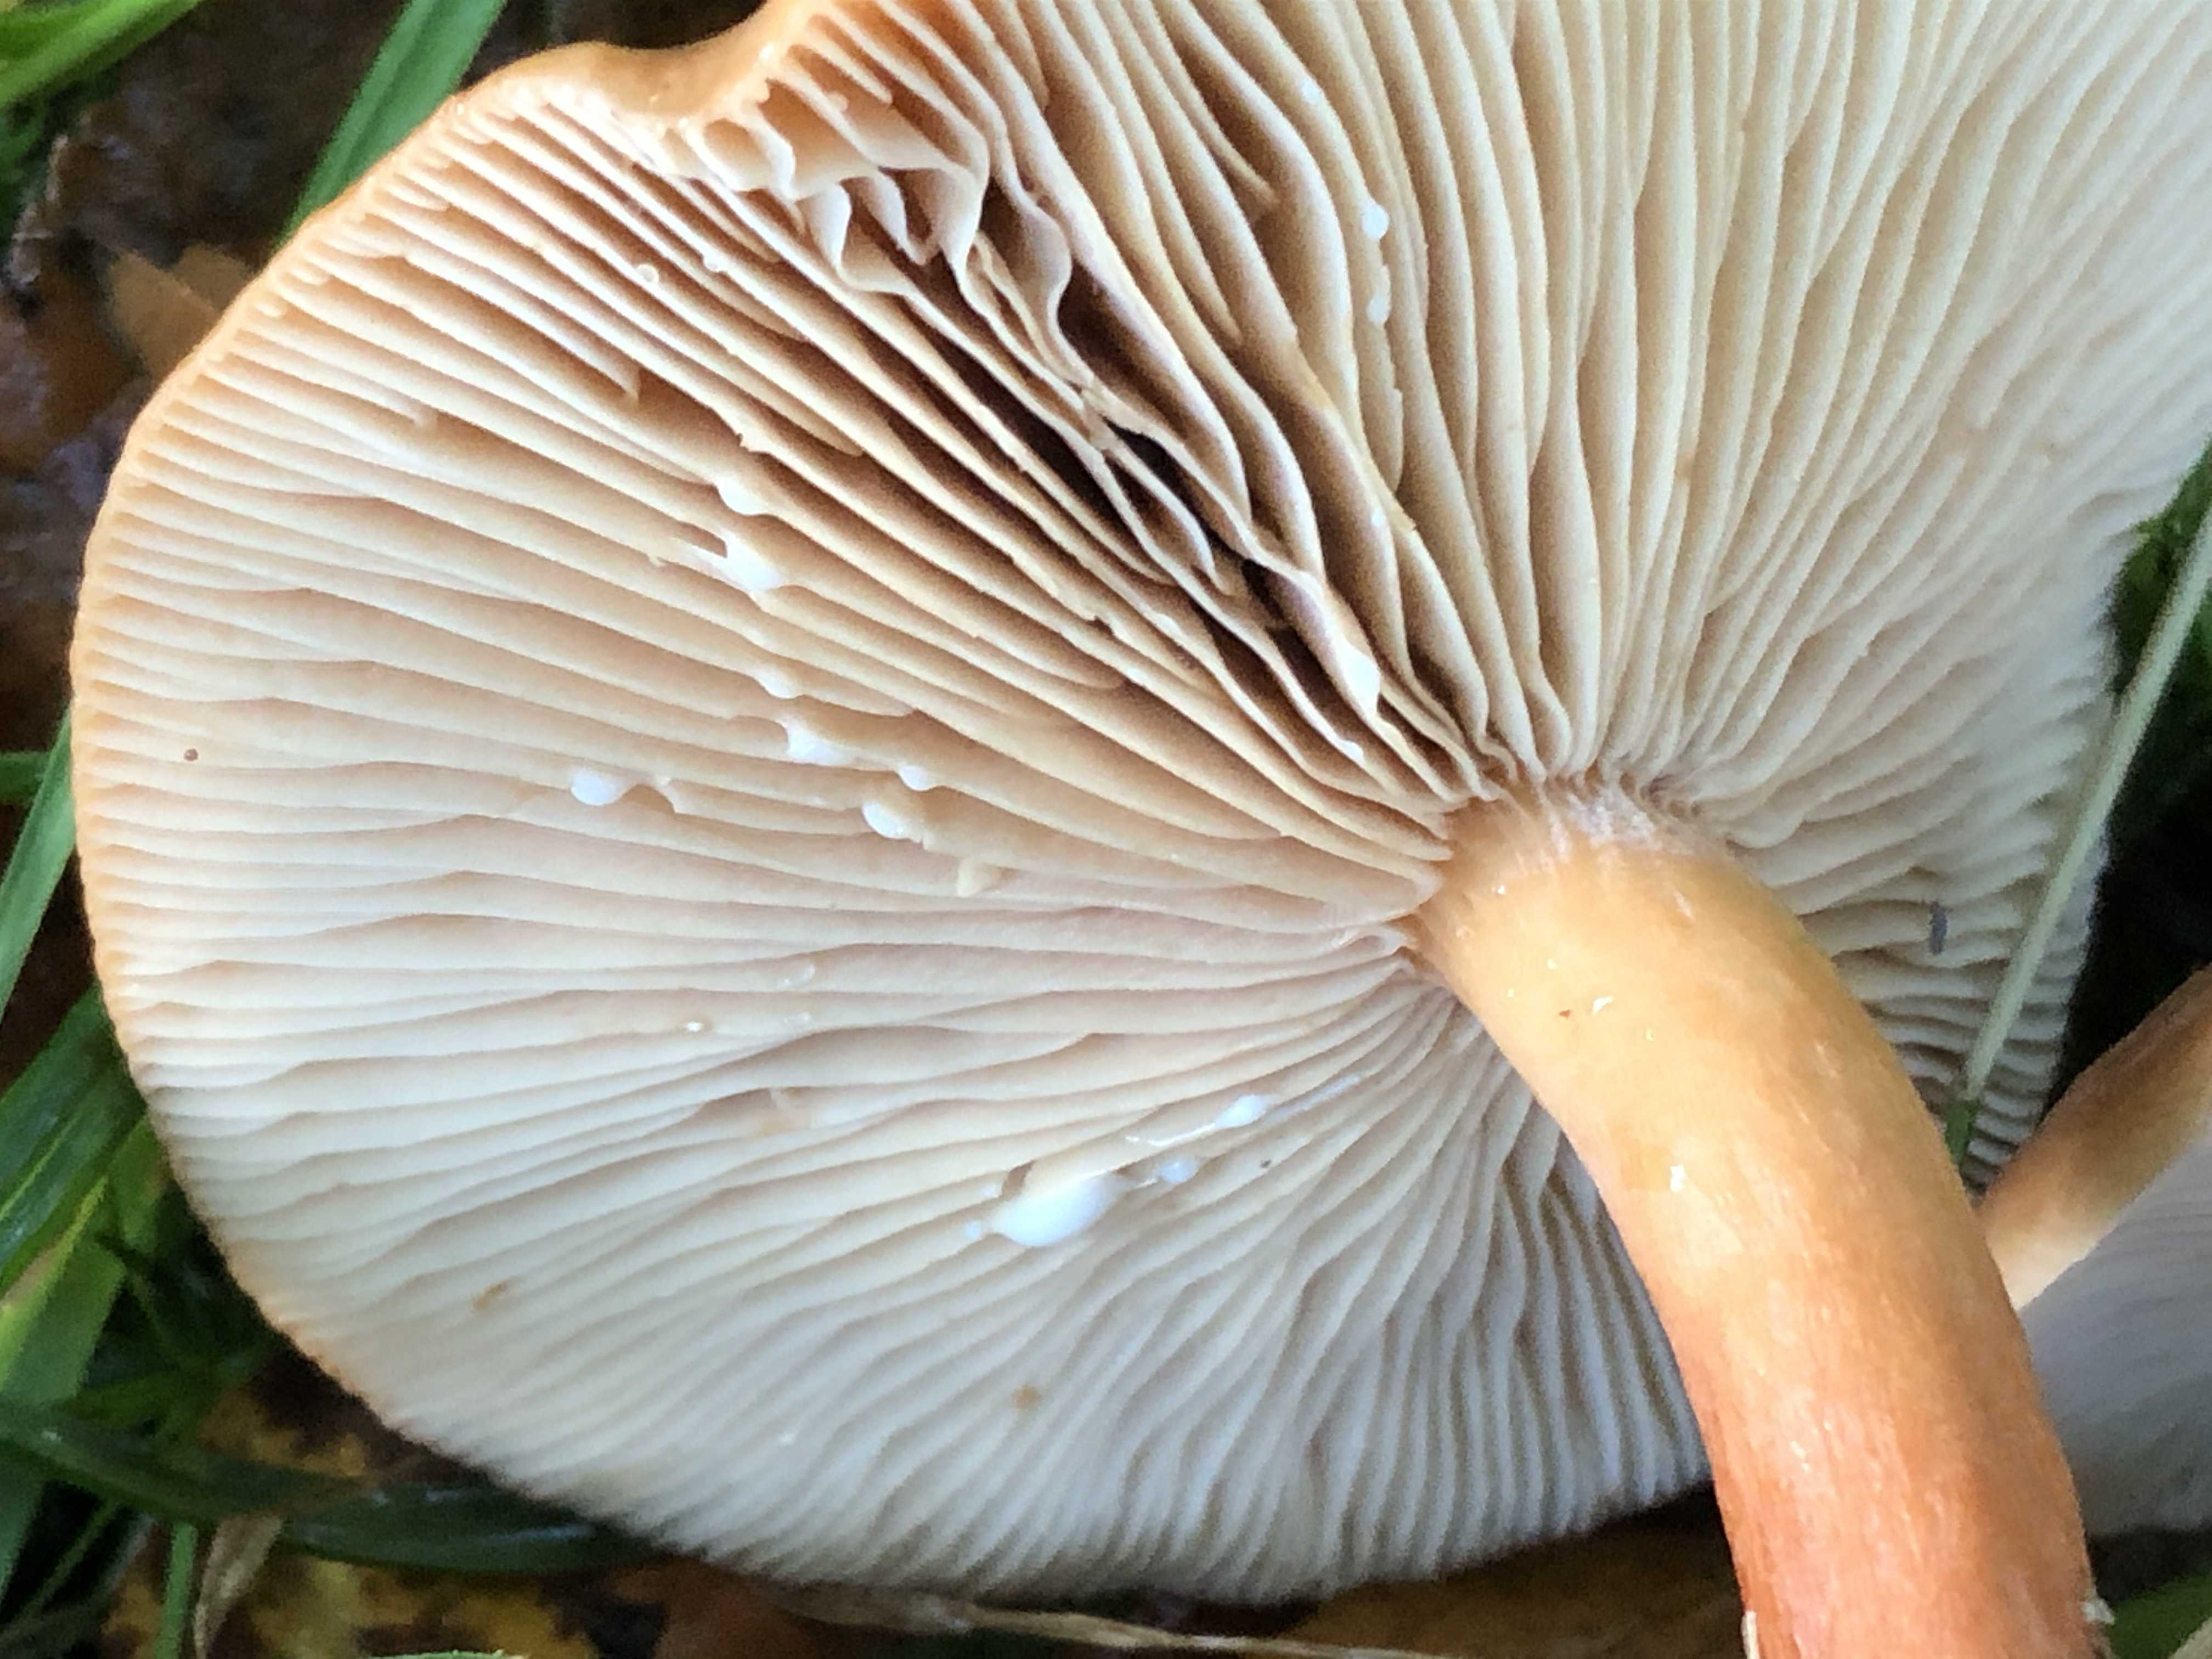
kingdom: Fungi
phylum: Basidiomycota
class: Agaricomycetes
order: Russulales
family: Russulaceae
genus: Lactarius
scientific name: Lactarius subdulcis
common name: sødlig mælkehat
